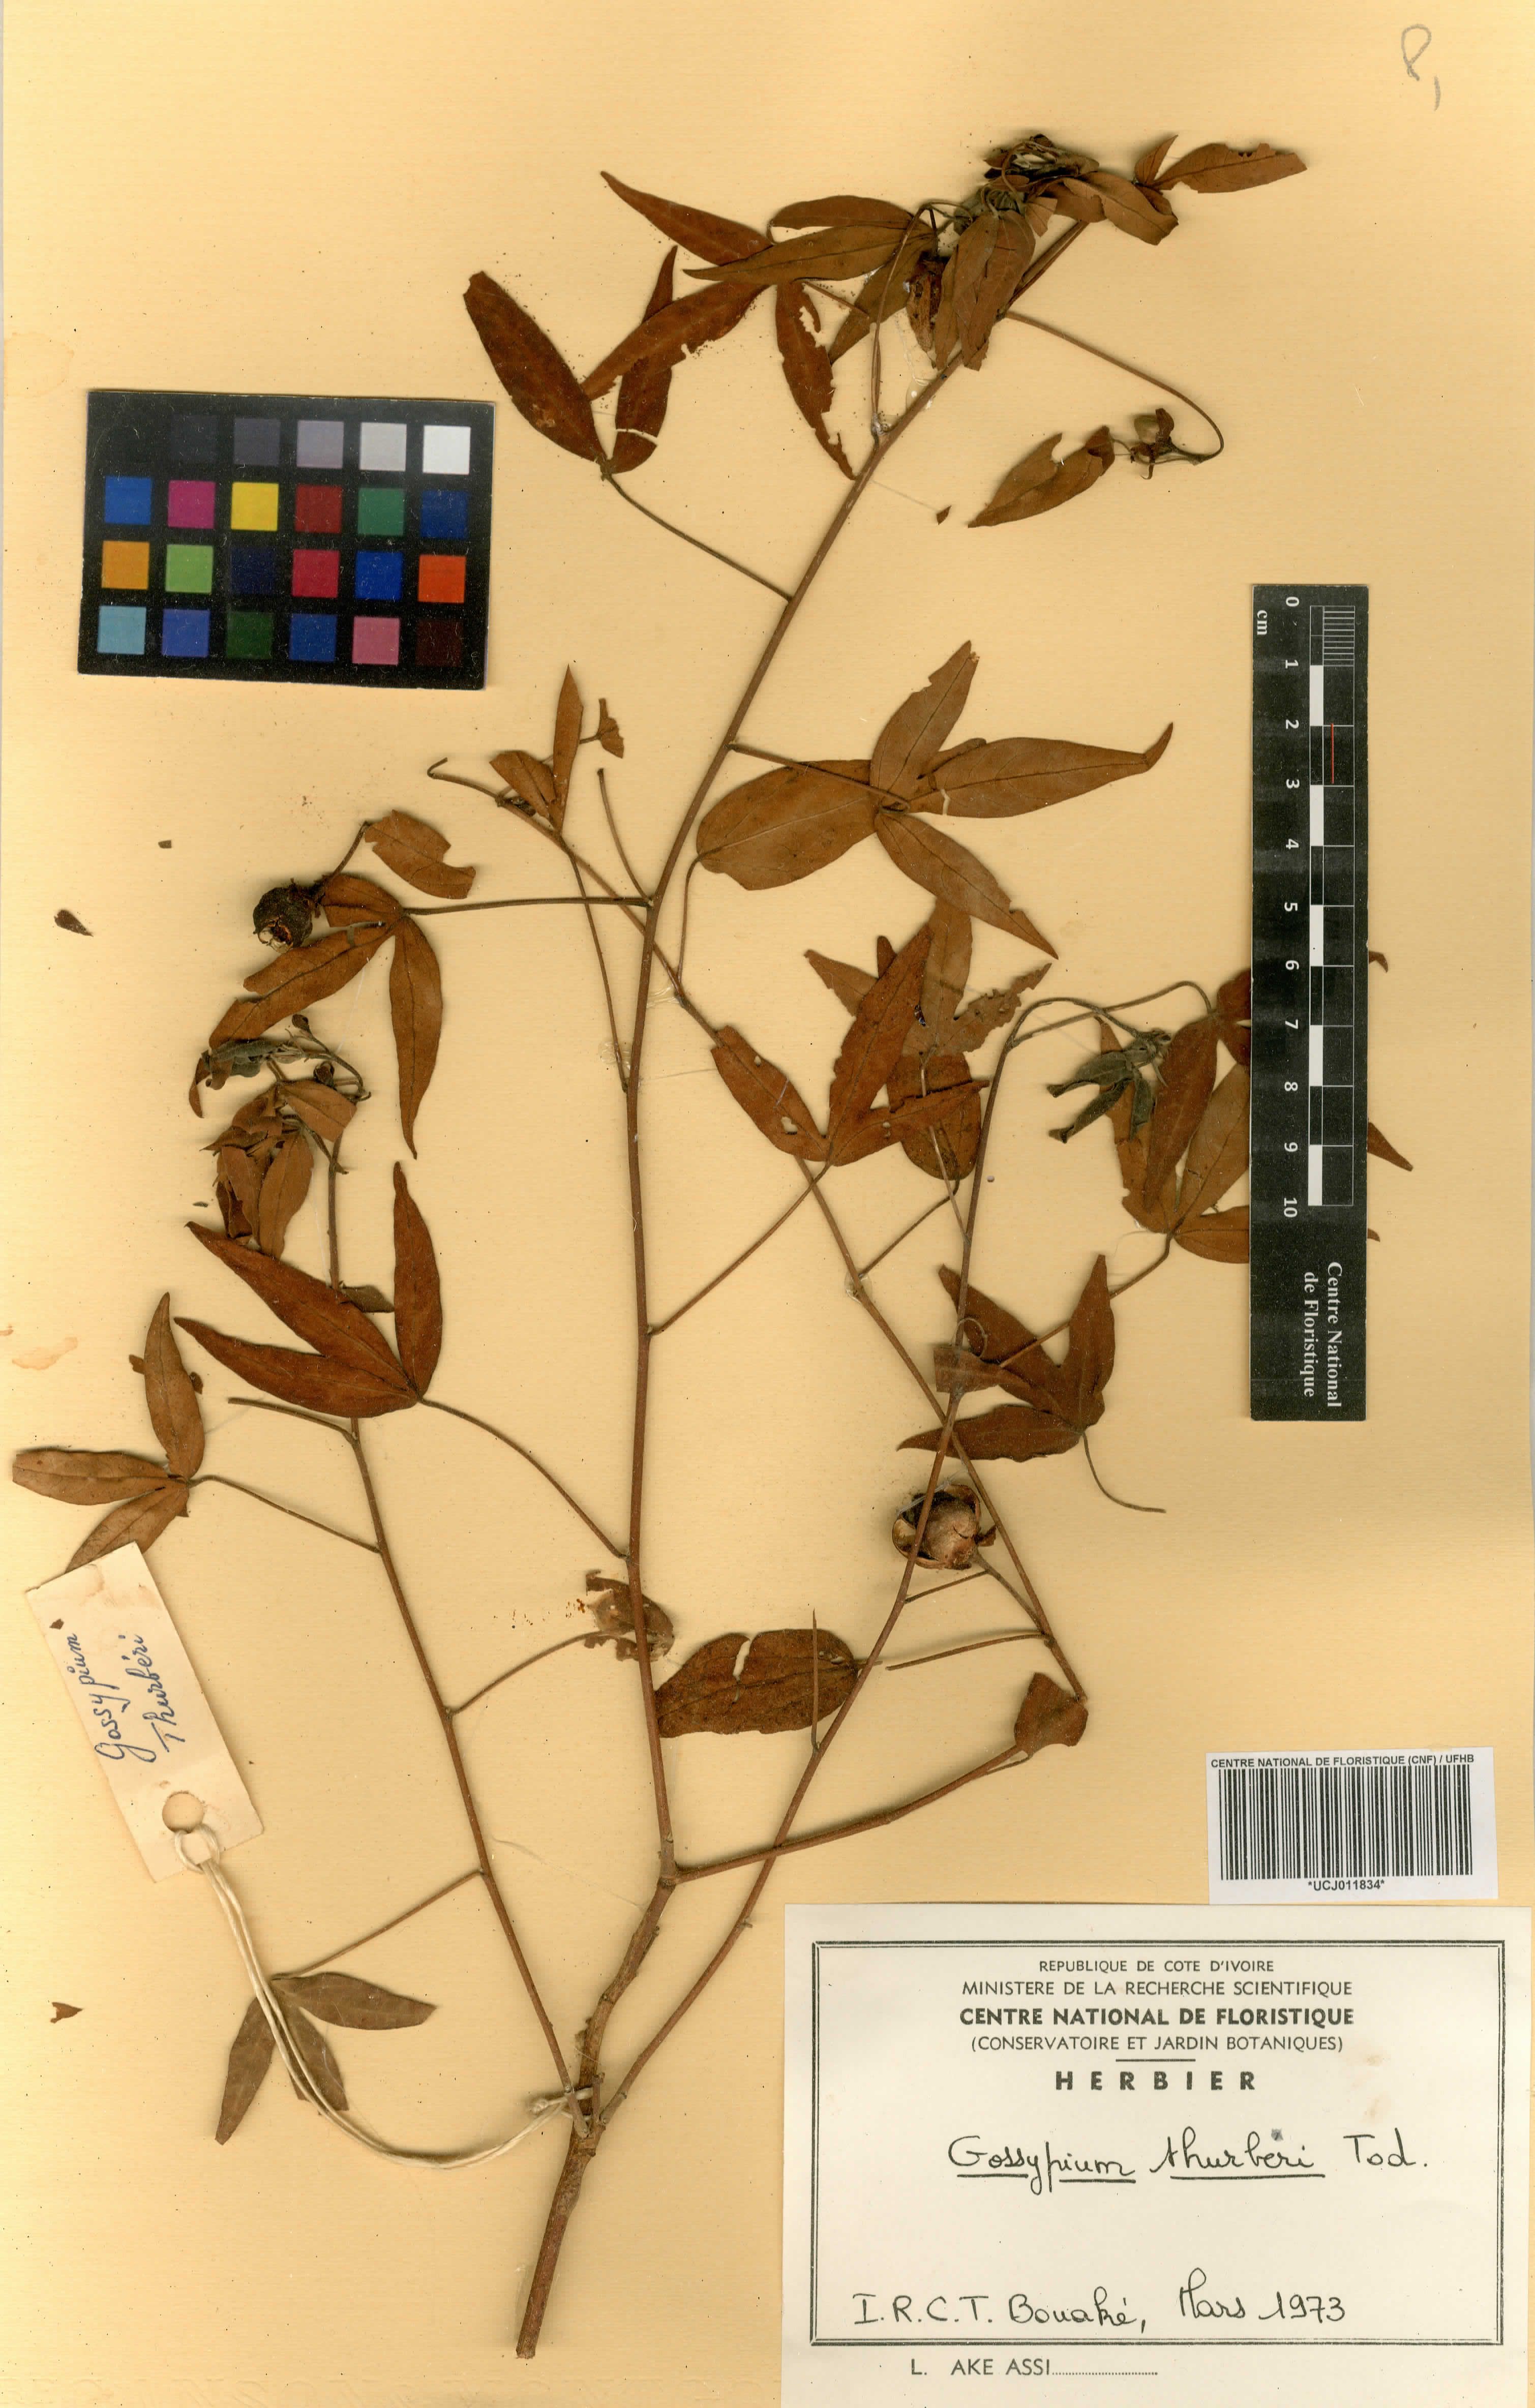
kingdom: Plantae
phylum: Tracheophyta
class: Magnoliopsida
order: Malvales
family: Malvaceae
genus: Gossypium
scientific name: Gossypium thurberi
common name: Desert cotton
